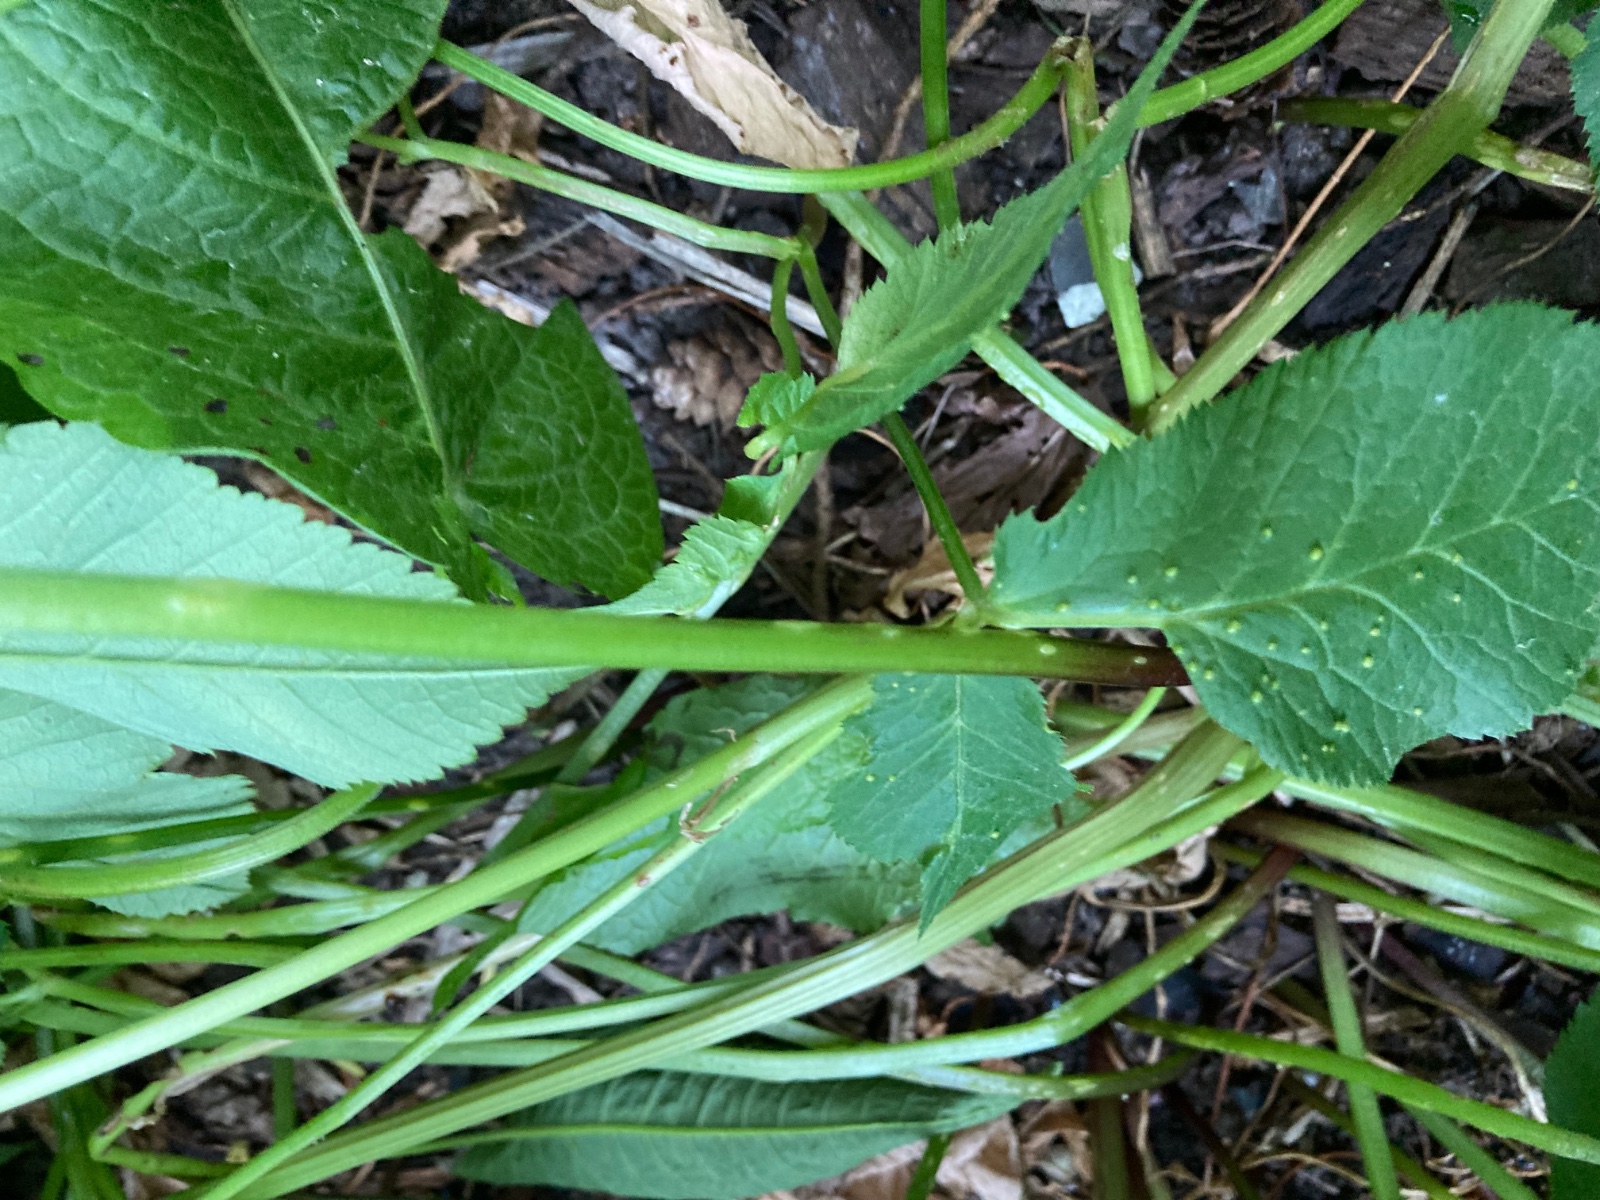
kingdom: Fungi
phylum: Ascomycota
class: Taphrinomycetes
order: Taphrinales
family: Taphrinaceae
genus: Protomyces
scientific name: Protomyces macrosporus
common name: skvalderkål-vablesæk
